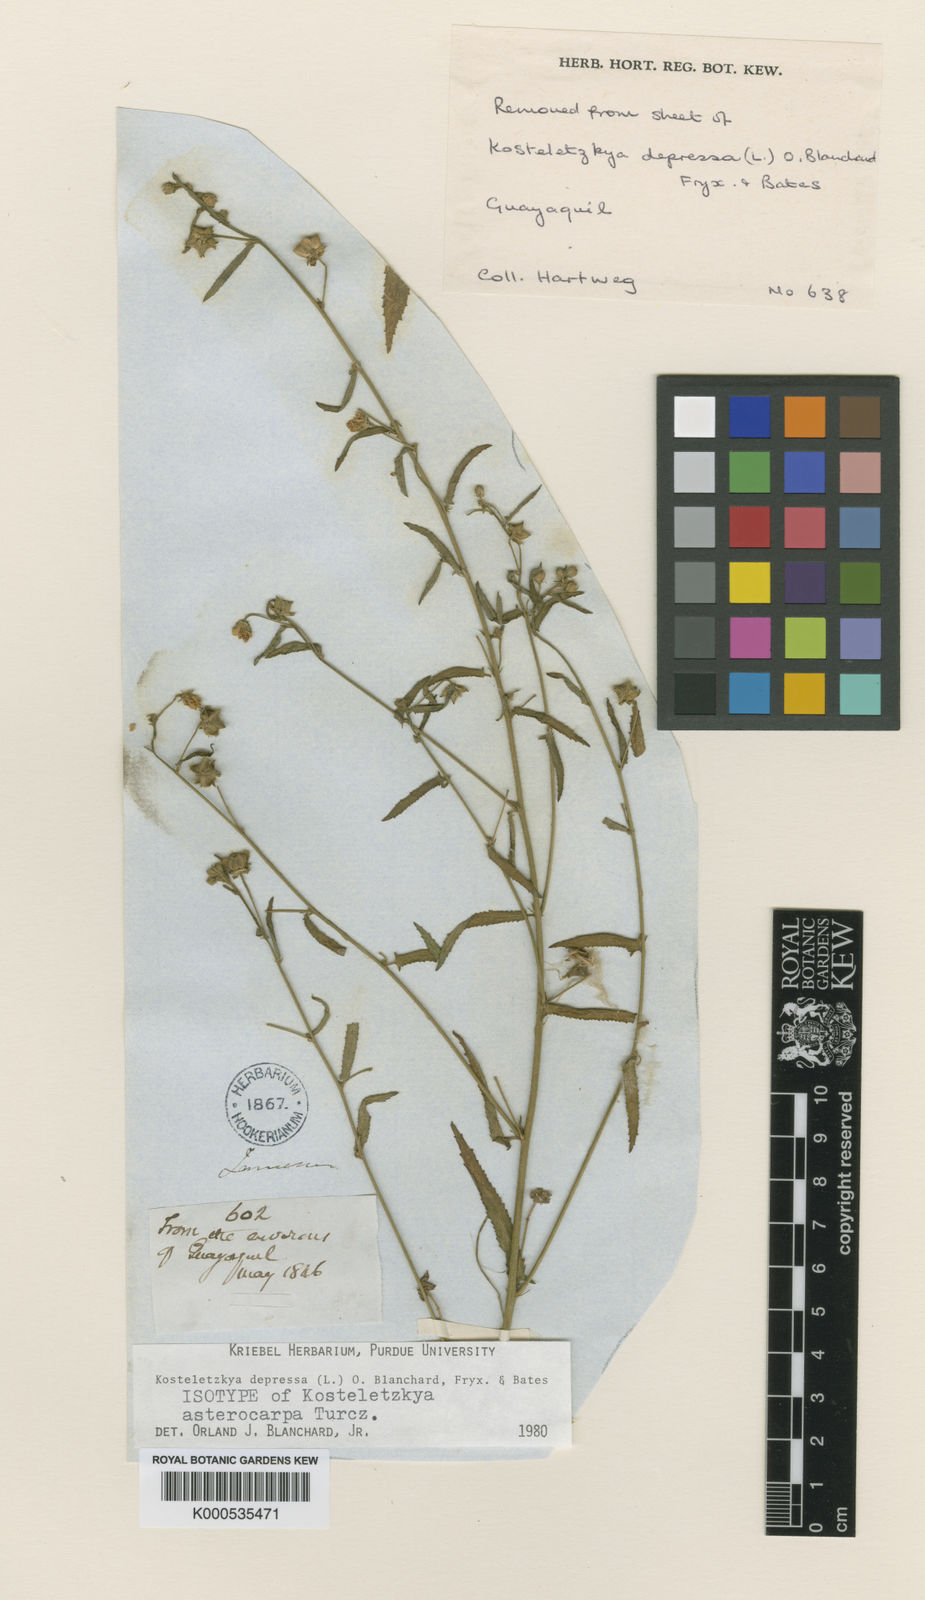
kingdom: Plantae
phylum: Tracheophyta
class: Magnoliopsida
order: Malvales
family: Malvaceae
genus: Kosteletzkya
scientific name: Kosteletzkya depressa
